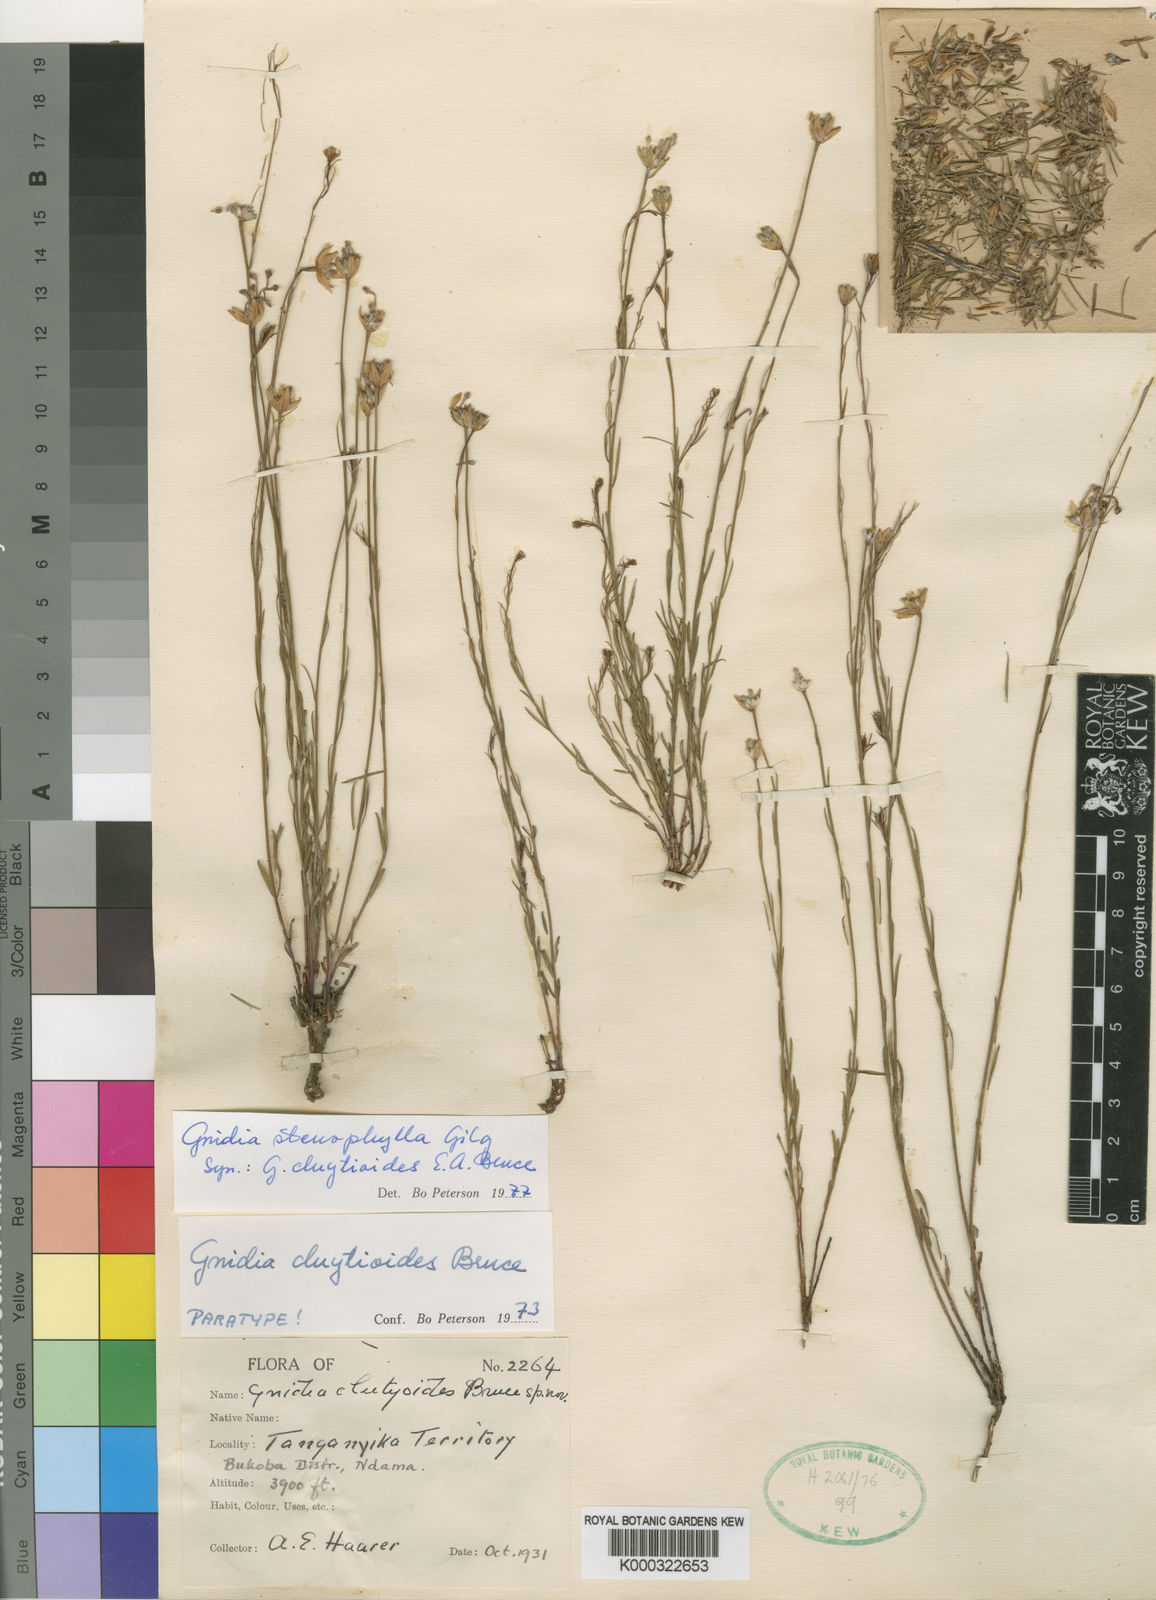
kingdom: Plantae
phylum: Tracheophyta
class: Magnoliopsida
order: Malvales
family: Thymelaeaceae
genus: Gnidia
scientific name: Gnidia stenophylla
